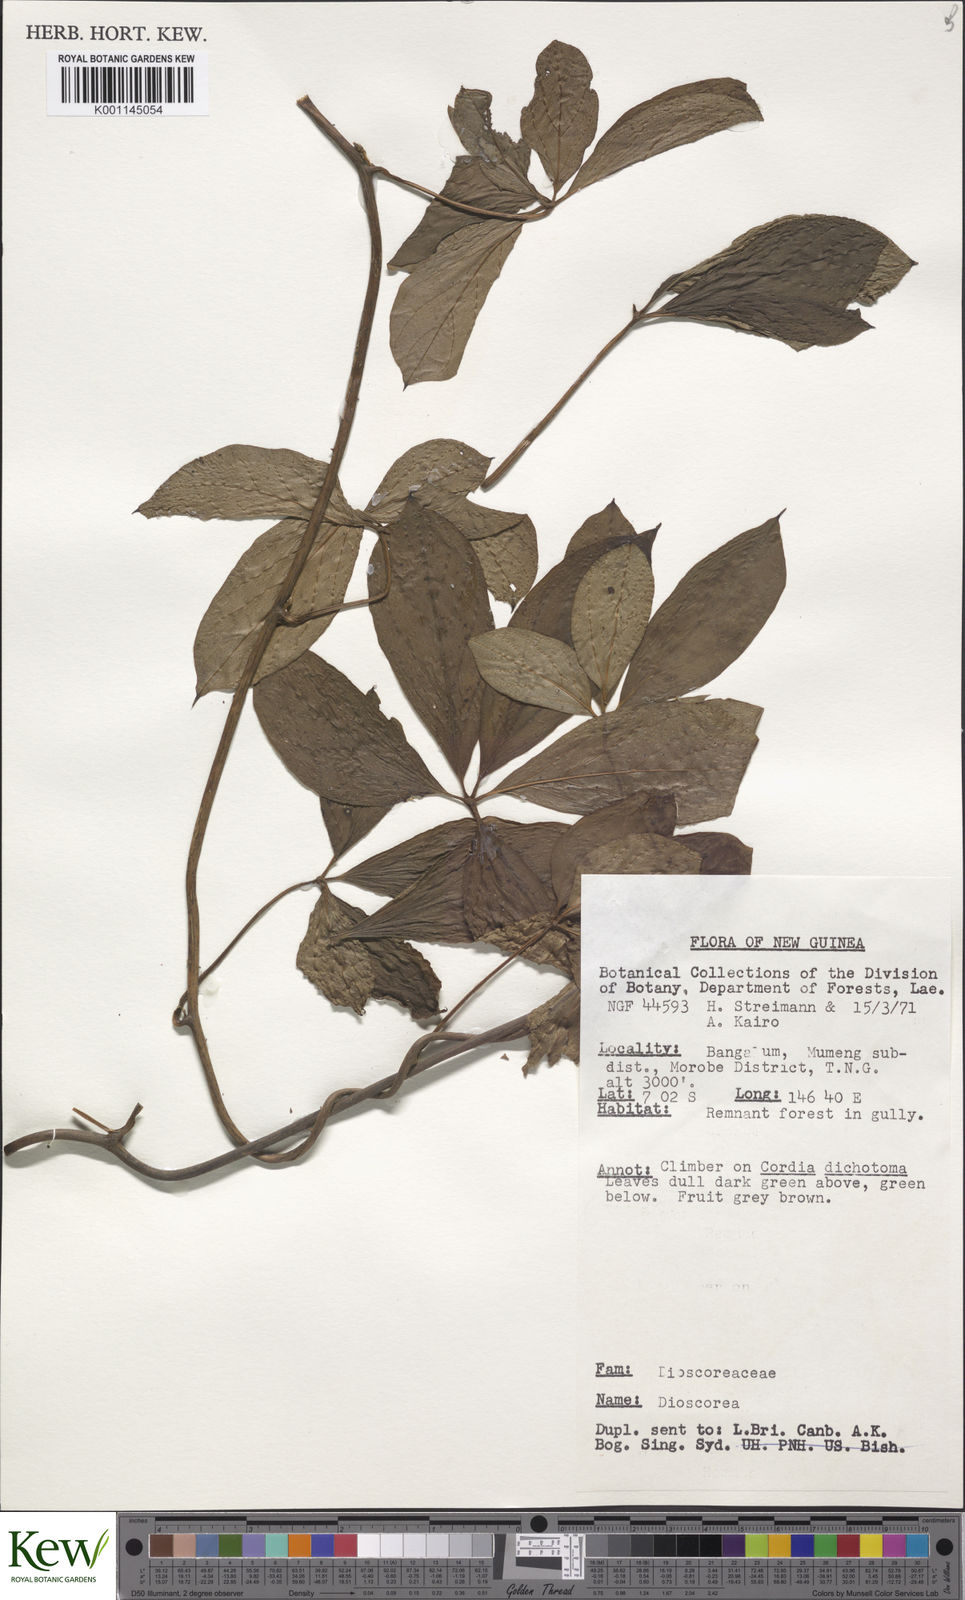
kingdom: Plantae
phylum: Tracheophyta
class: Liliopsida
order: Dioscoreales
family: Dioscoreaceae
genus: Dioscorea
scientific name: Dioscorea
